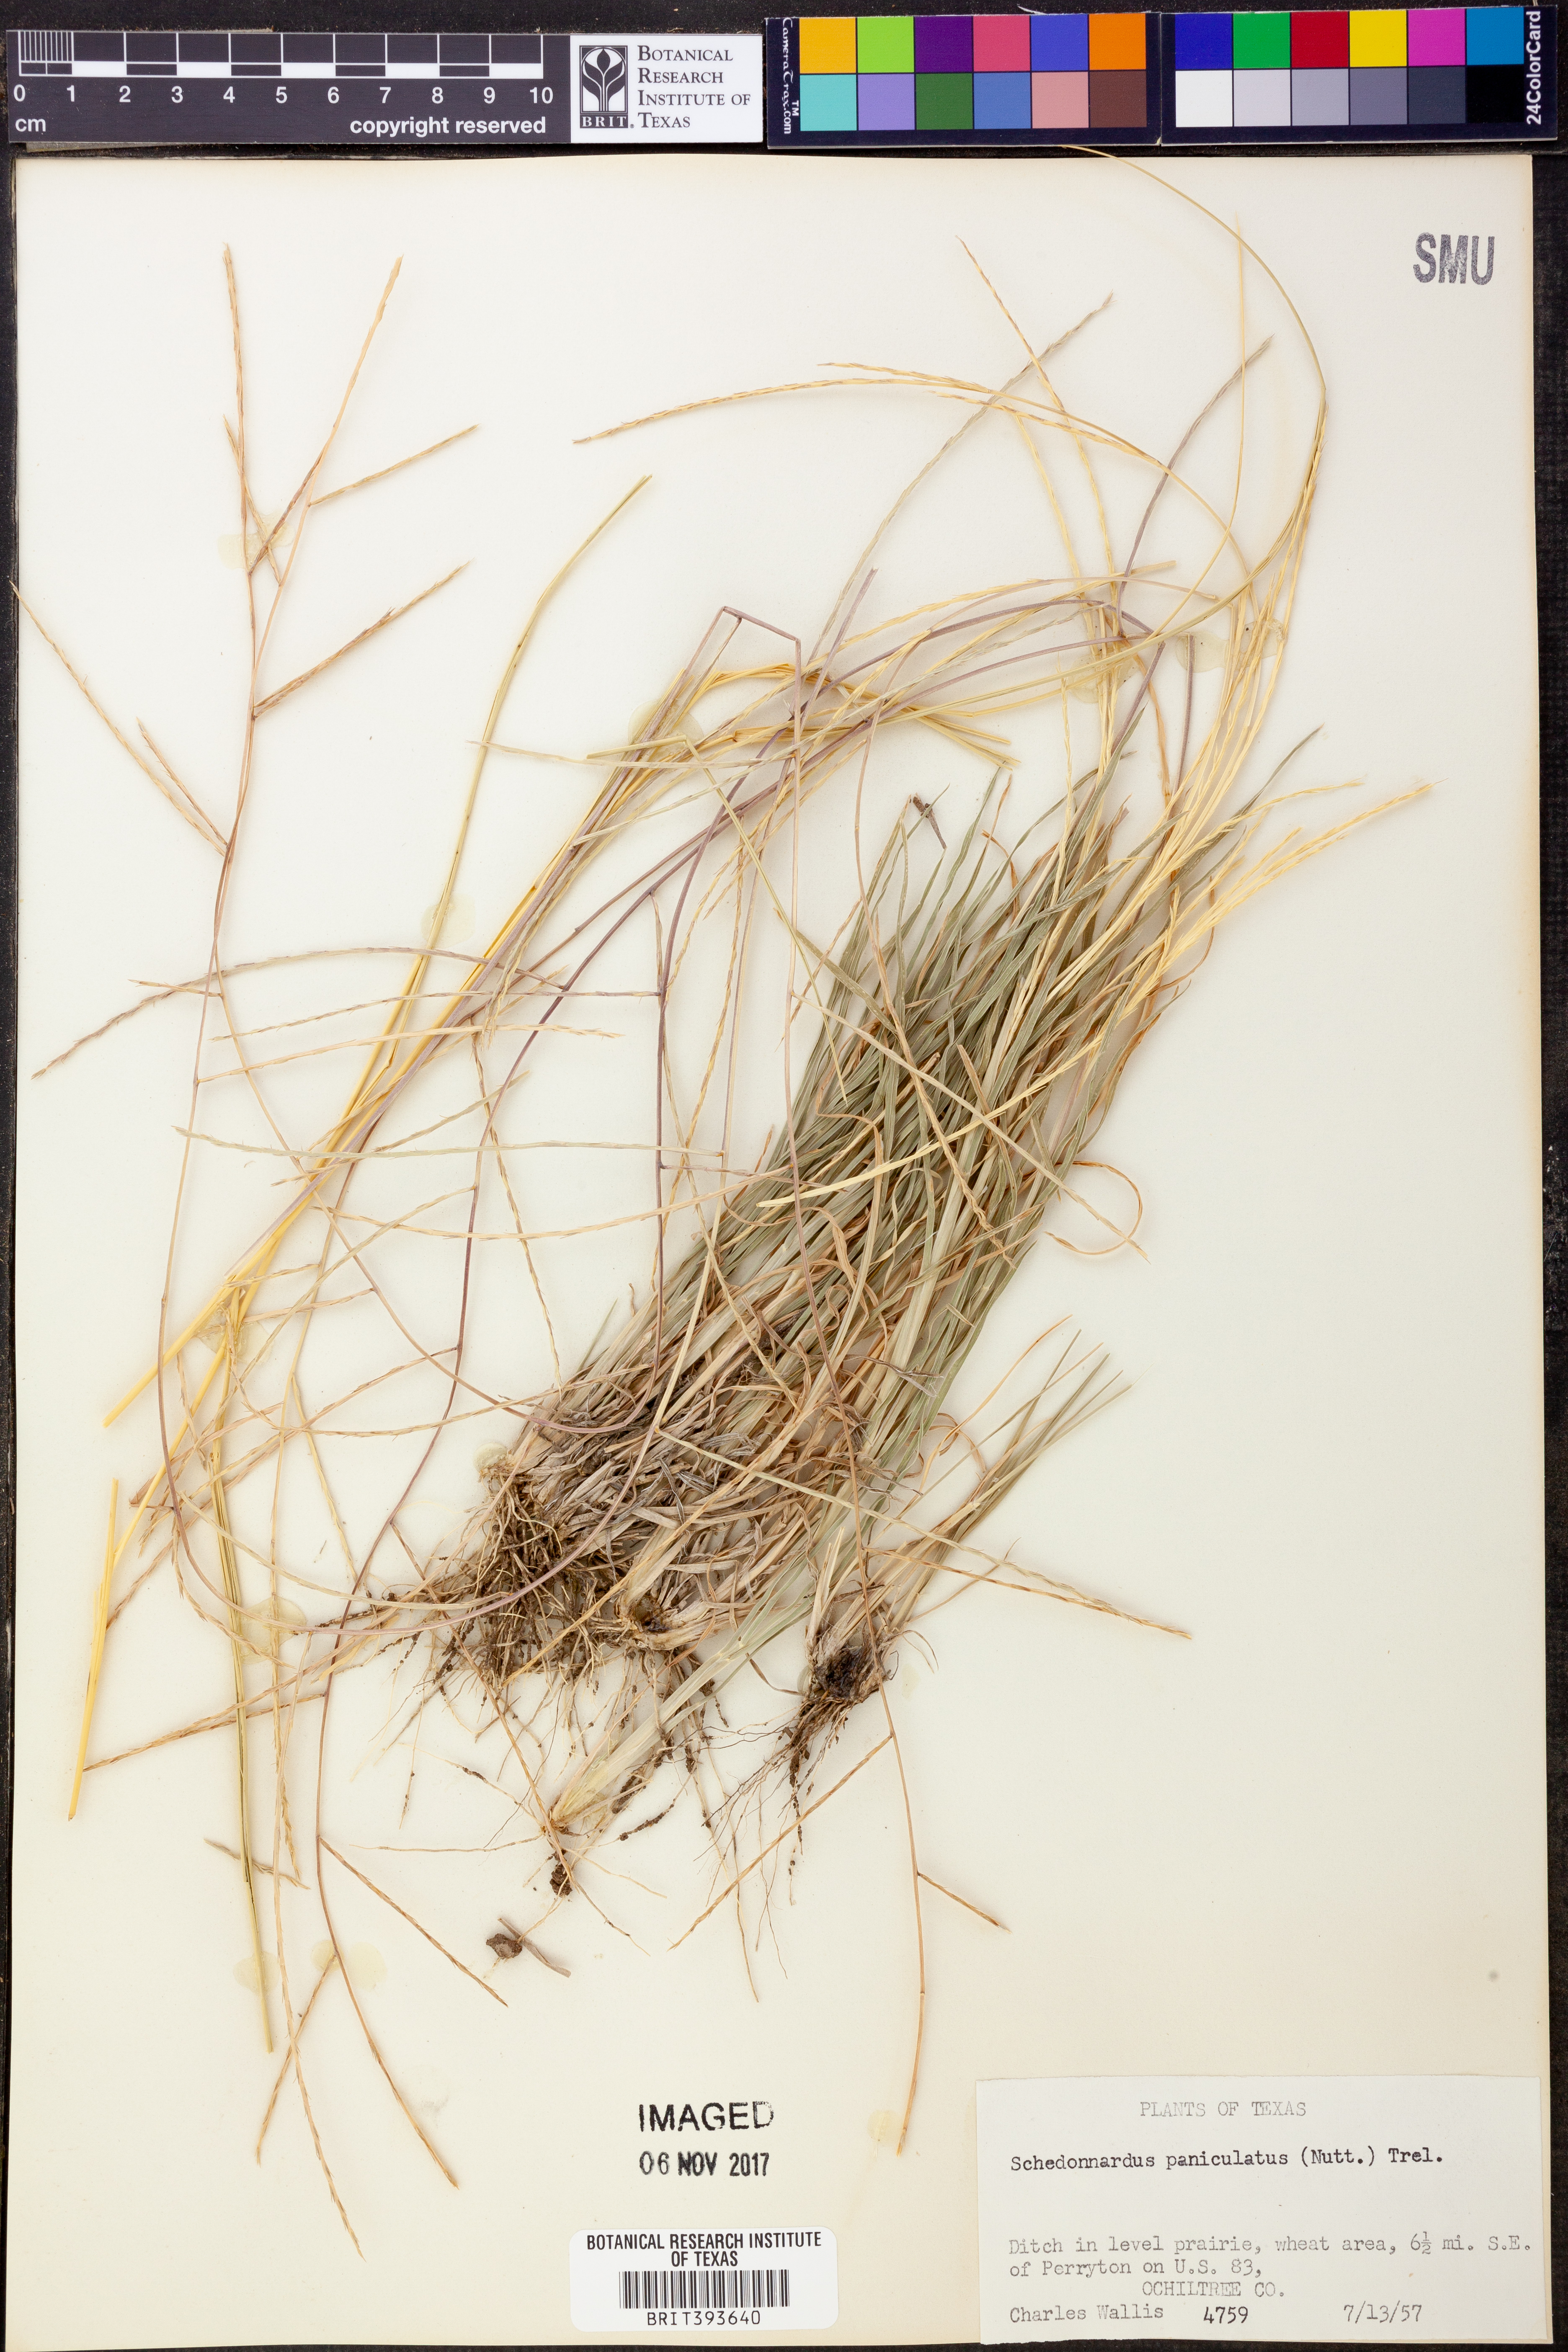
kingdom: Plantae
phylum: Tracheophyta
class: Liliopsida
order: Poales
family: Poaceae
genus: Muhlenbergia
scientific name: Muhlenbergia paniculata
